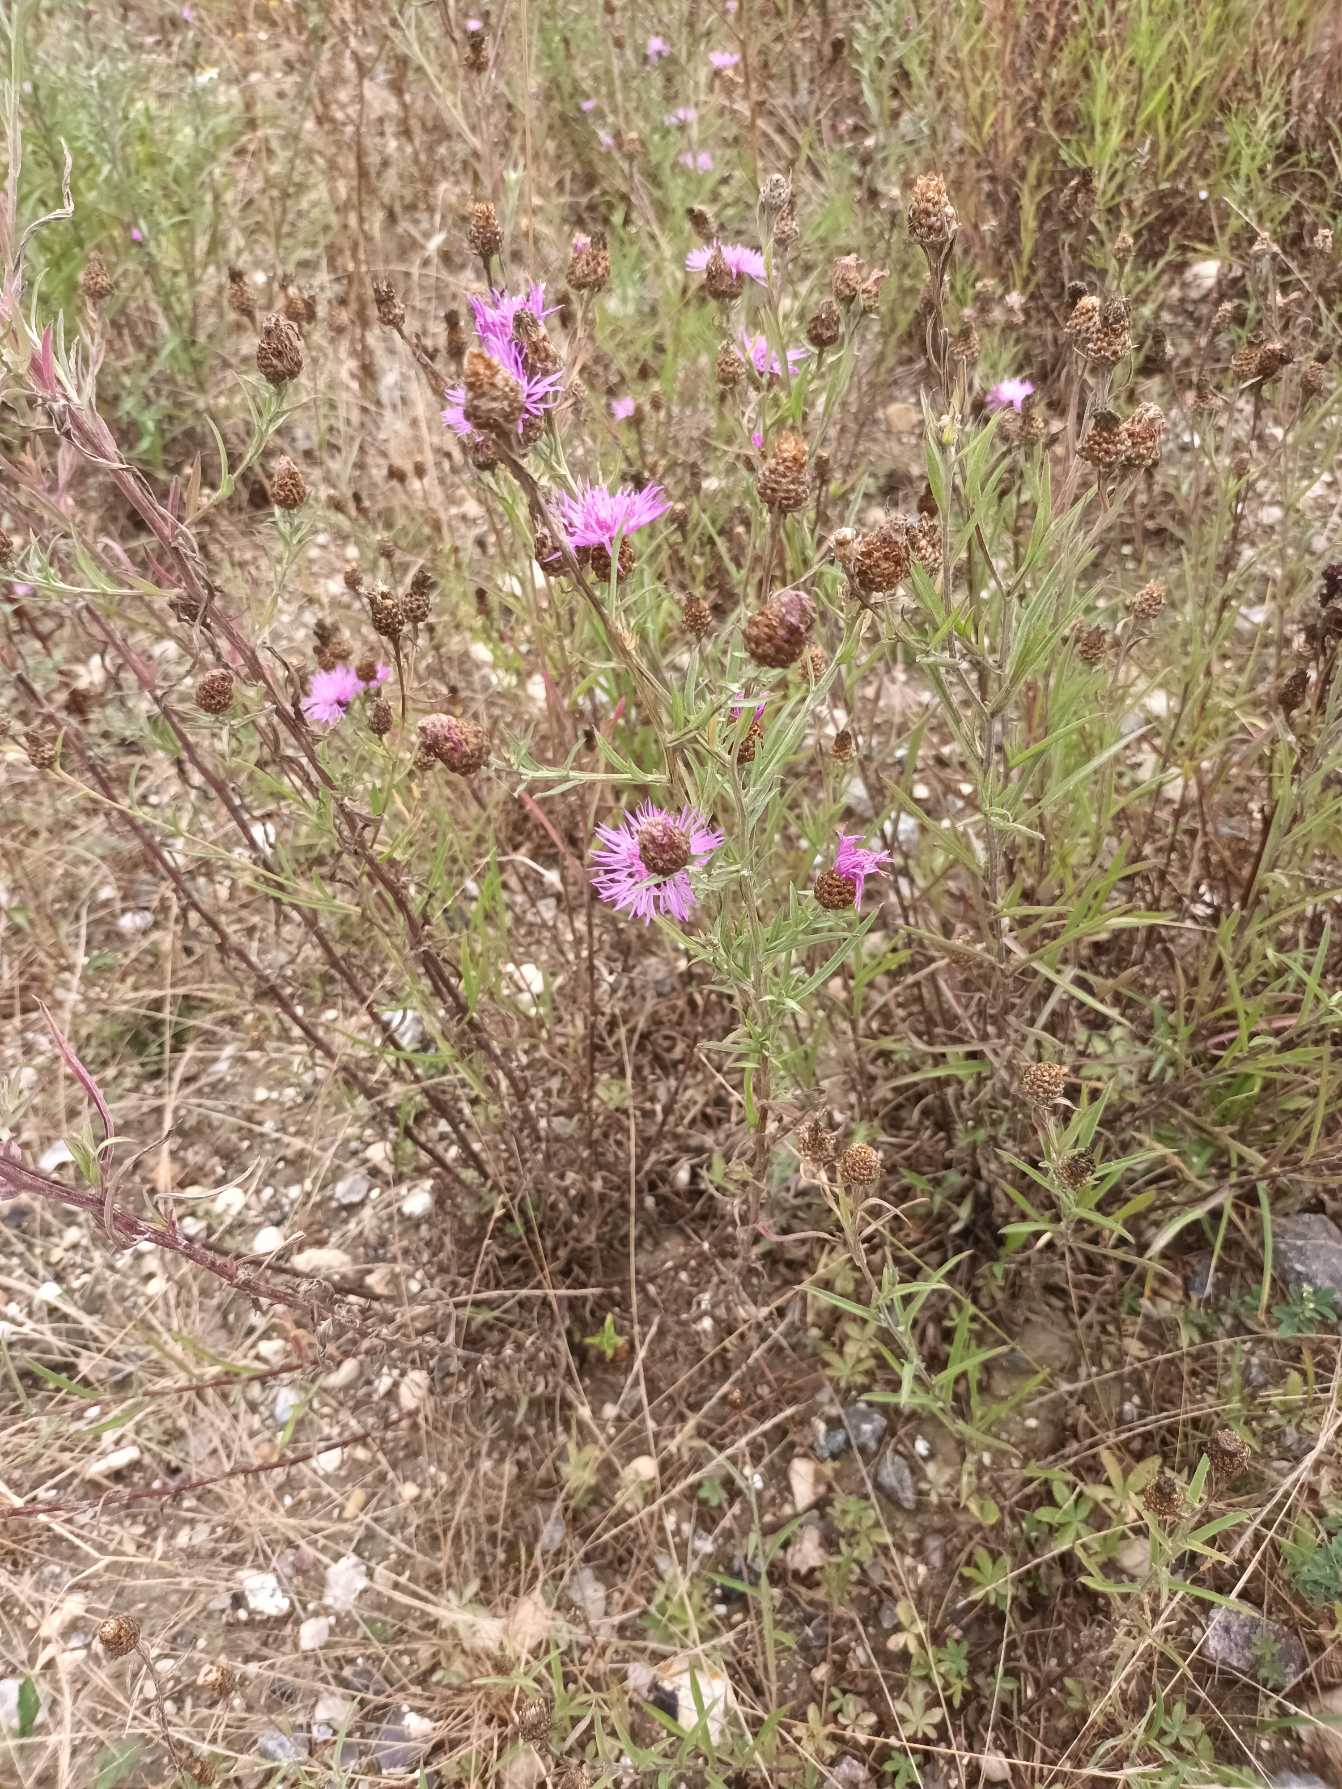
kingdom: Plantae
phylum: Tracheophyta
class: Magnoliopsida
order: Asterales
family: Asteraceae
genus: Centaurea
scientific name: Centaurea jacea
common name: Smalbladet knopurt
